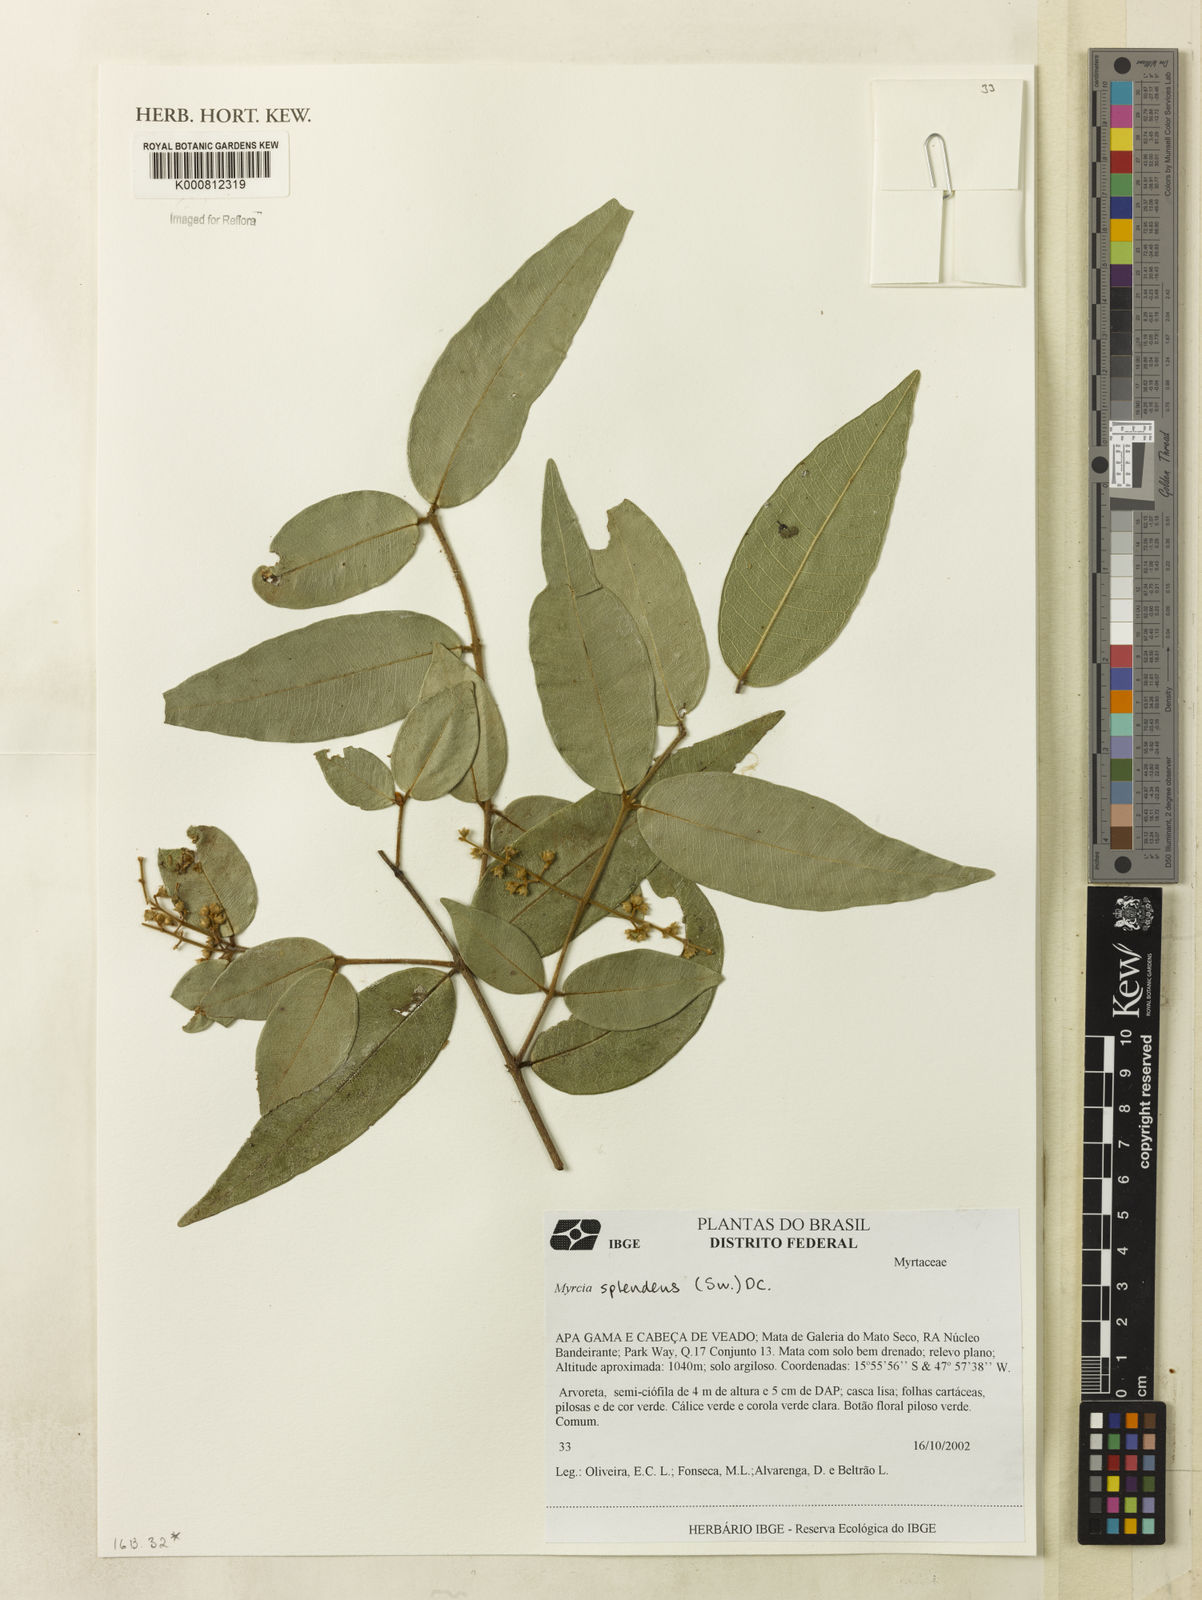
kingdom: Plantae
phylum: Tracheophyta
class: Magnoliopsida
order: Myrtales
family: Myrtaceae
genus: Myrcia
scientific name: Myrcia splendens
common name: Surinam cherry
